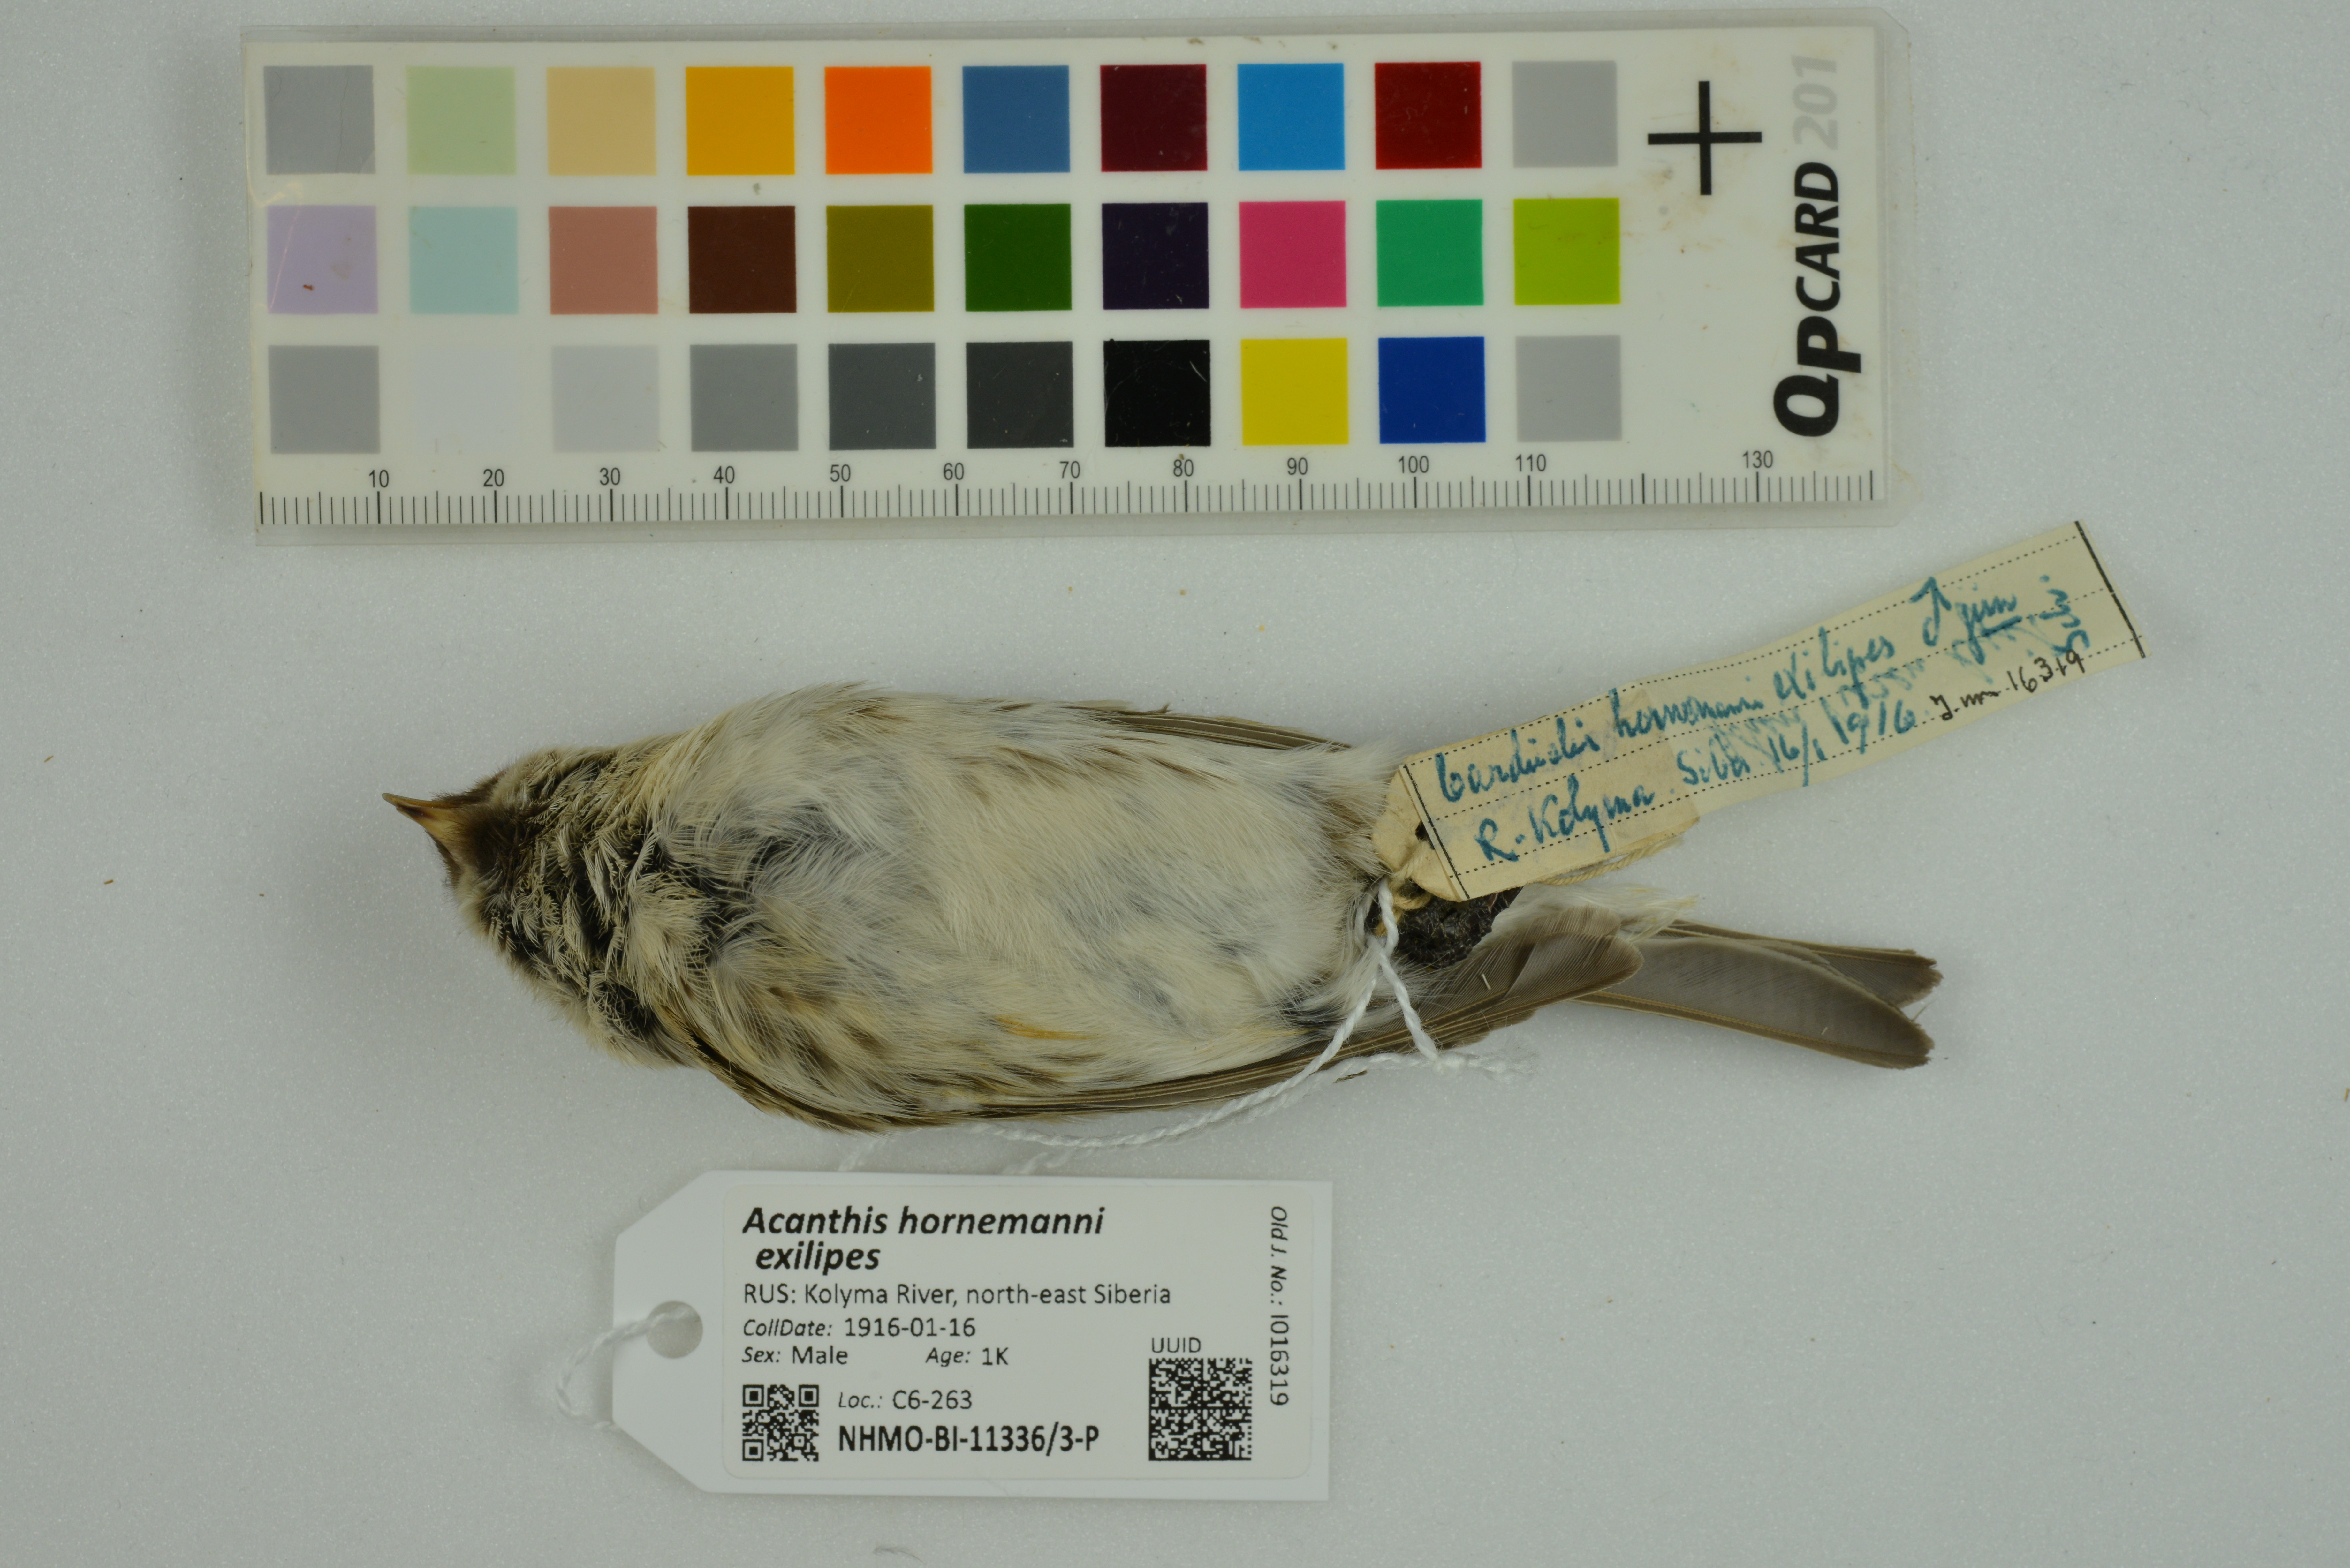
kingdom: Animalia
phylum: Chordata
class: Aves
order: Passeriformes
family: Fringillidae
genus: Acanthis
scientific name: Acanthis hornemanni
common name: Arctic redpoll
